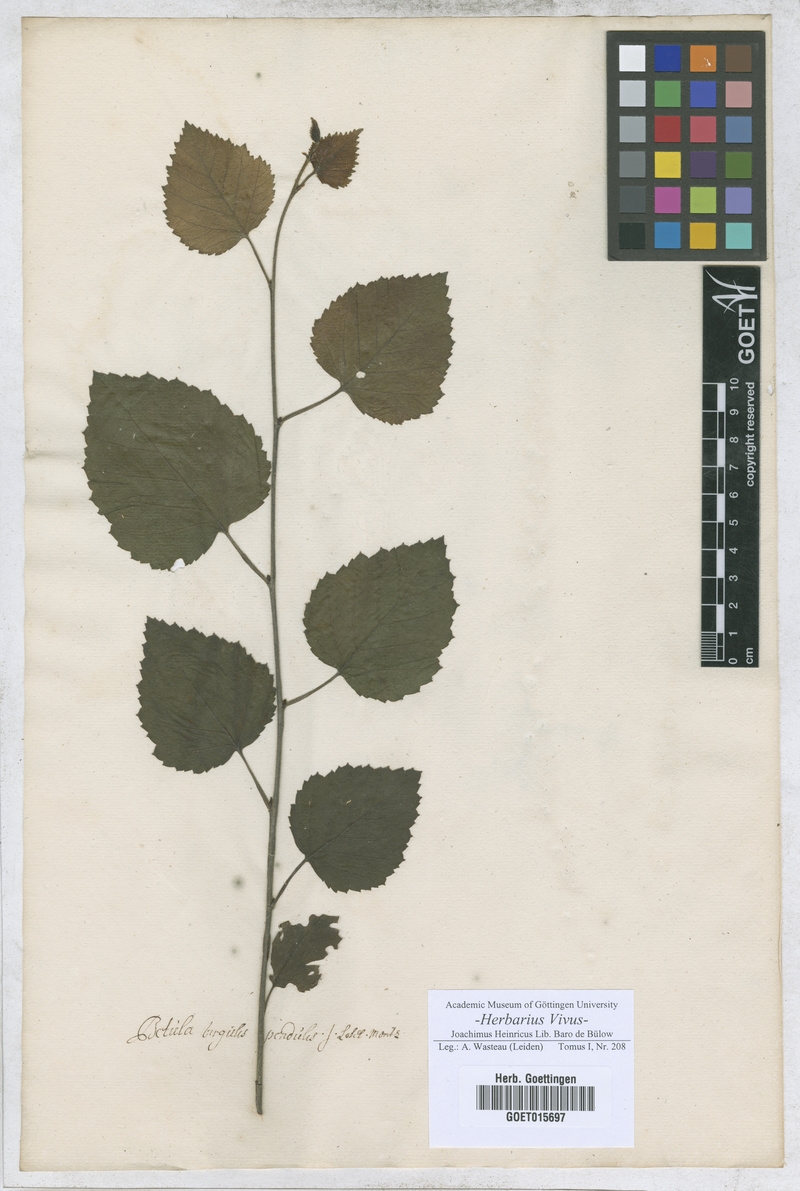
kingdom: Plantae
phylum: Tracheophyta
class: Magnoliopsida
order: Fagales
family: Betulaceae
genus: Betula
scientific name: Betula
